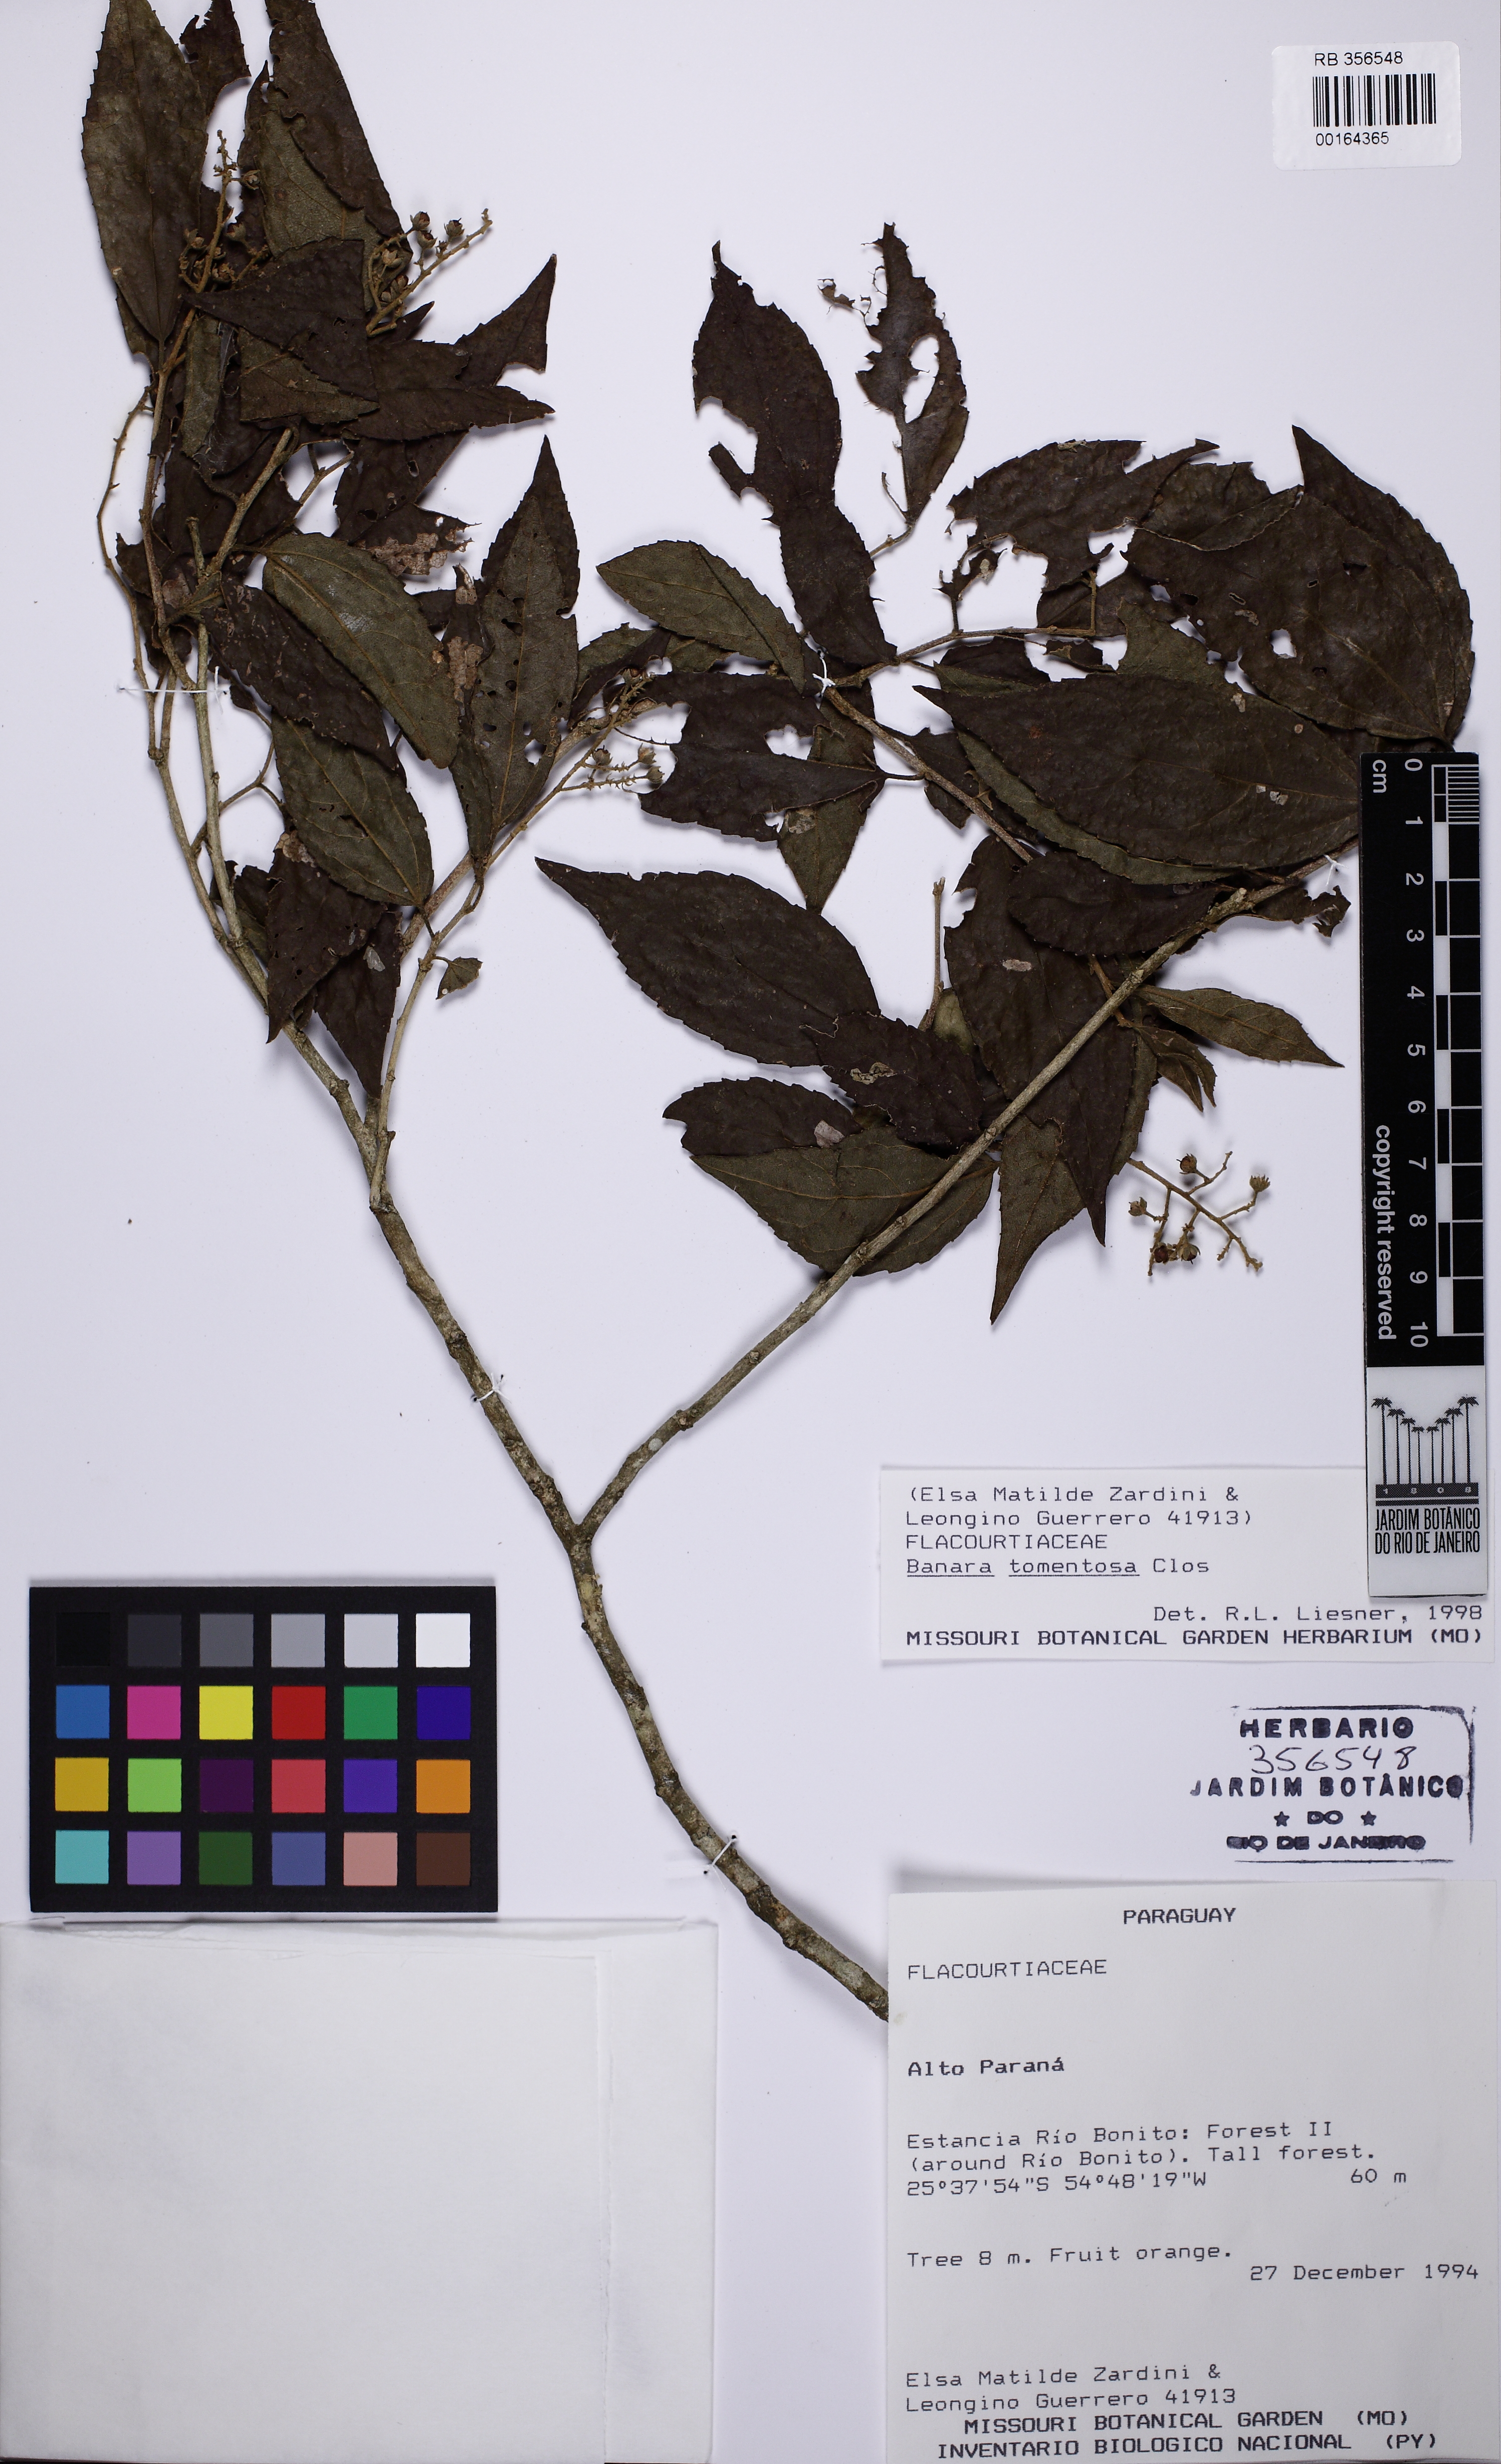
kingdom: Plantae
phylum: Tracheophyta
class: Magnoliopsida
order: Malpighiales
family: Salicaceae
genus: Banara
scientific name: Banara tomentosa
